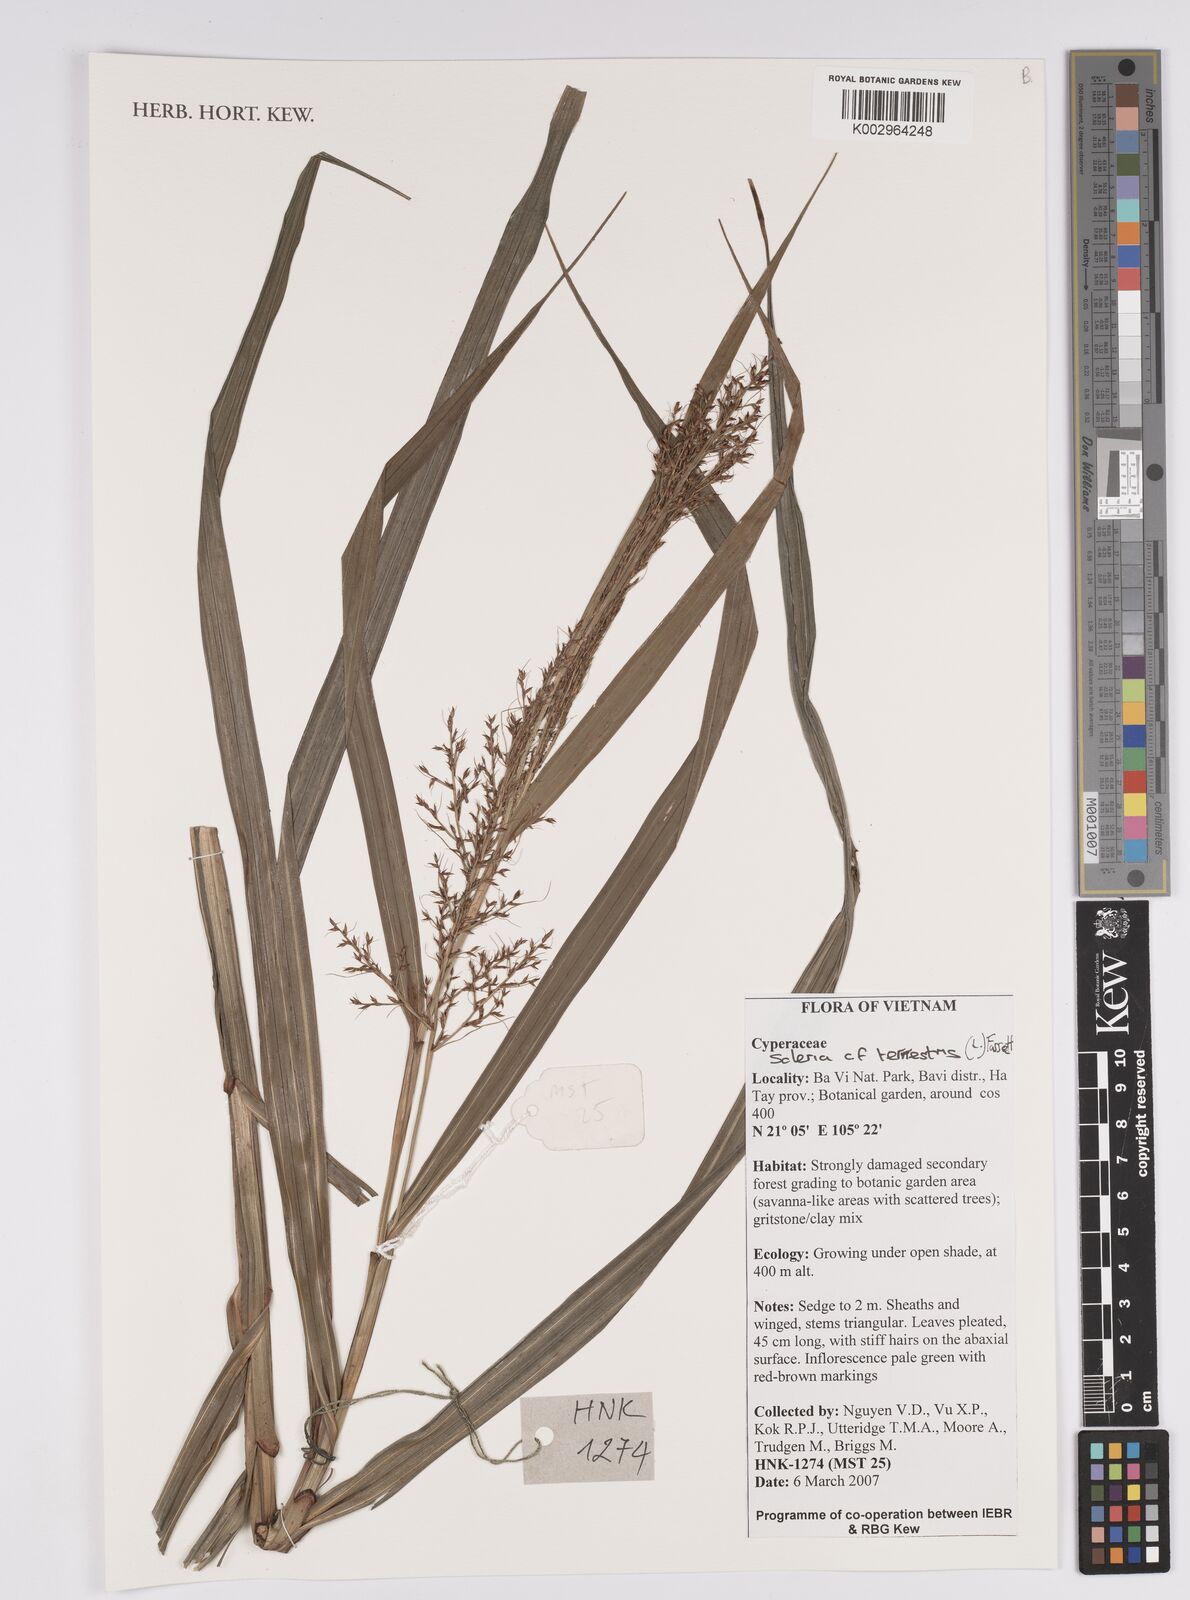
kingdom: Plantae
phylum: Tracheophyta
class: Liliopsida
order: Poales
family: Cyperaceae
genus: Scleria
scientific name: Scleria terrestris
